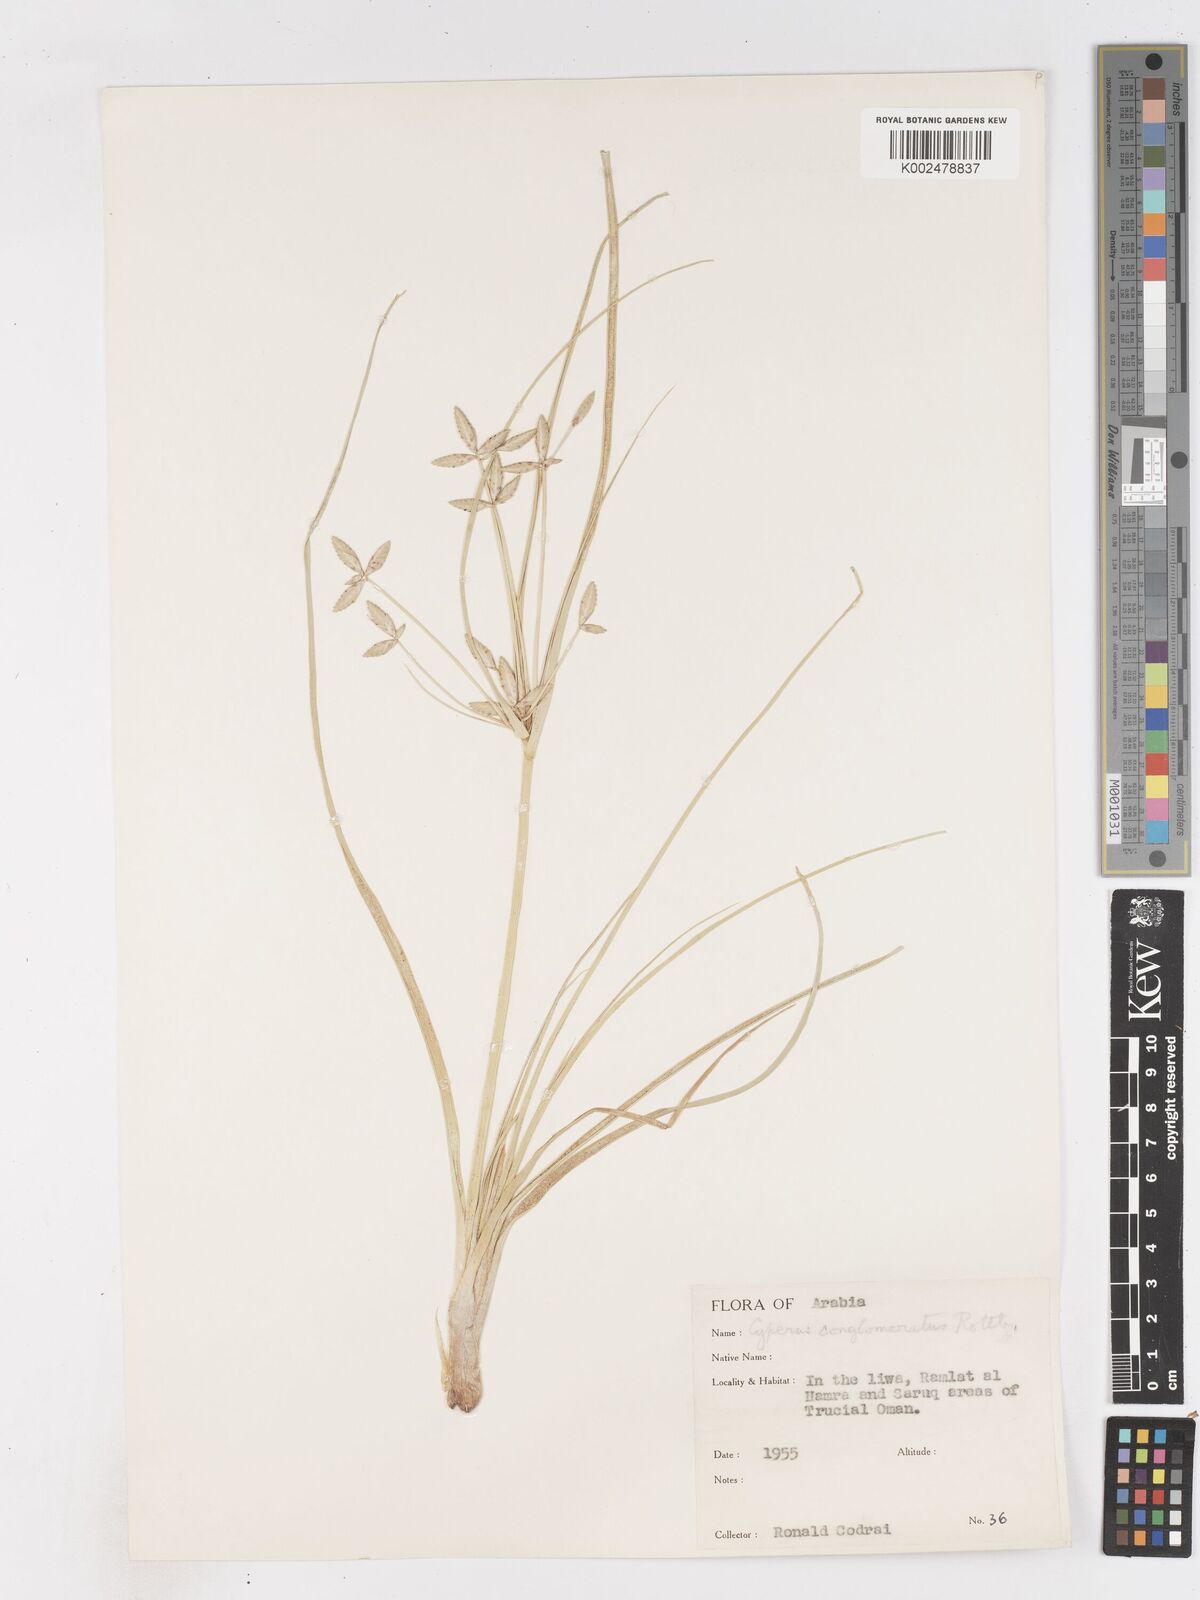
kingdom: Plantae
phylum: Tracheophyta
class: Liliopsida
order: Poales
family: Cyperaceae
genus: Cyperus
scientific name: Cyperus aucheri
